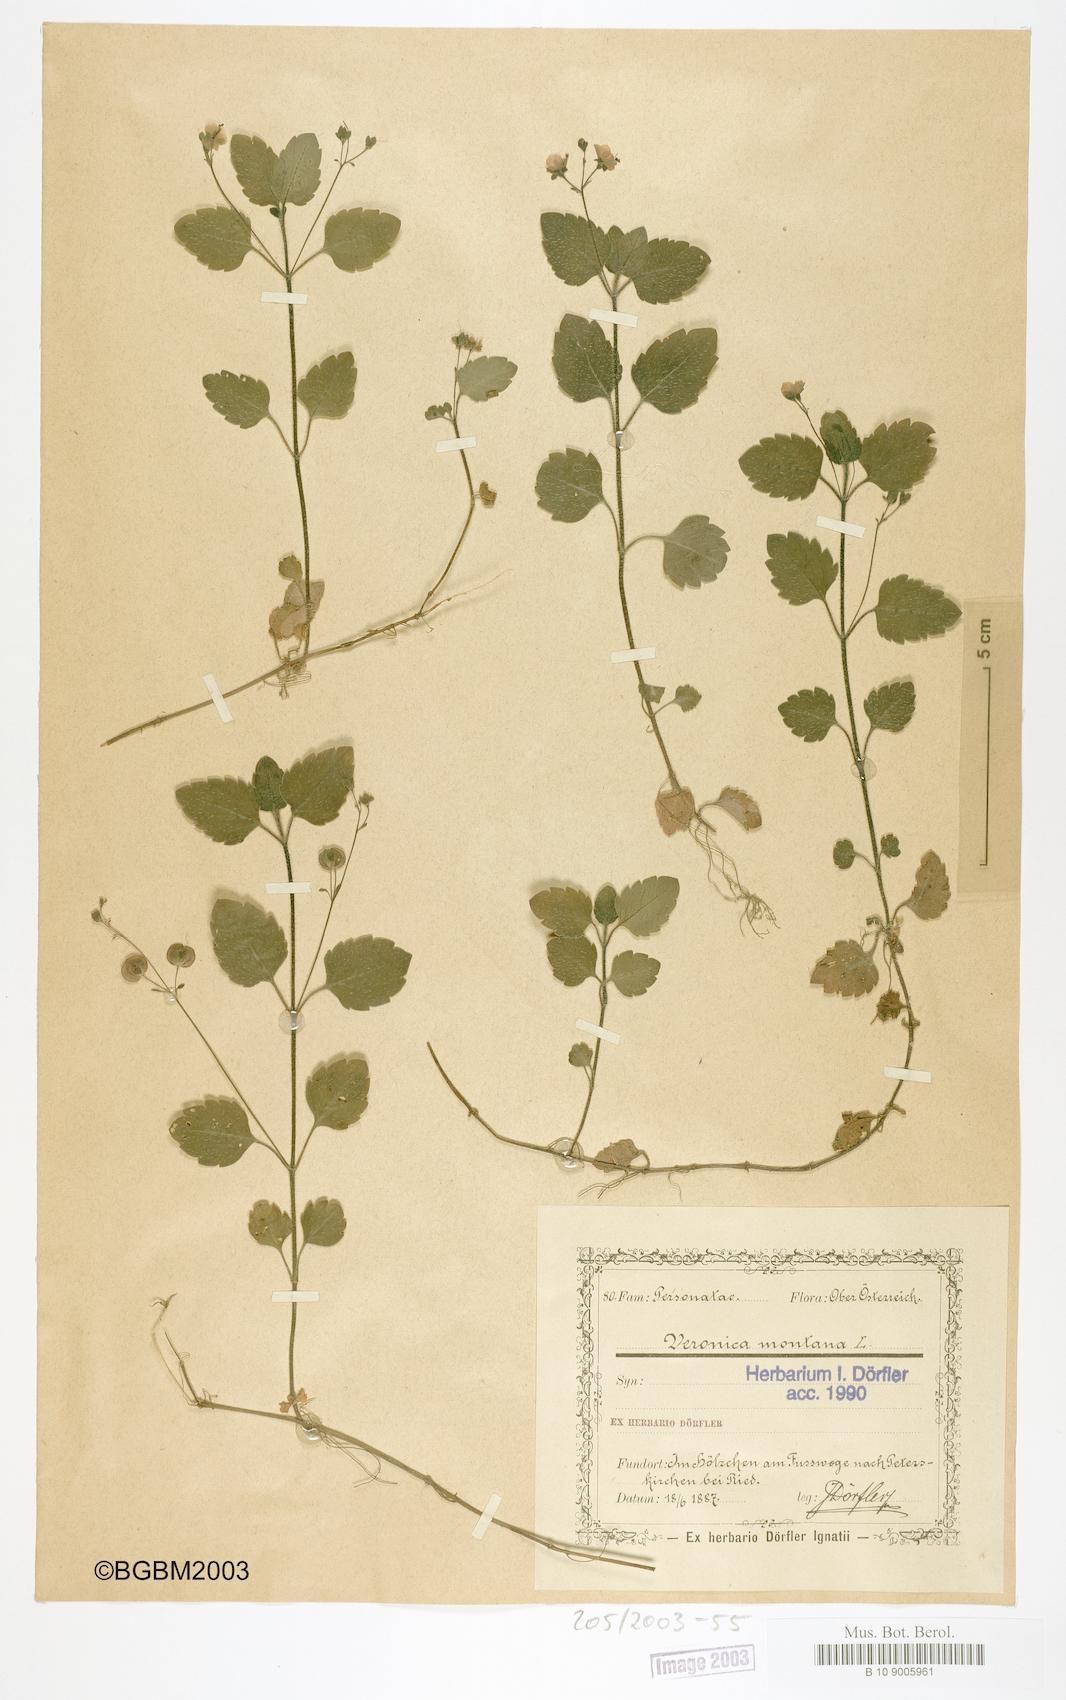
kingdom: Plantae
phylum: Tracheophyta
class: Magnoliopsida
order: Lamiales
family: Plantaginaceae
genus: Veronica
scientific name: Veronica montana
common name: Wood speedwell
